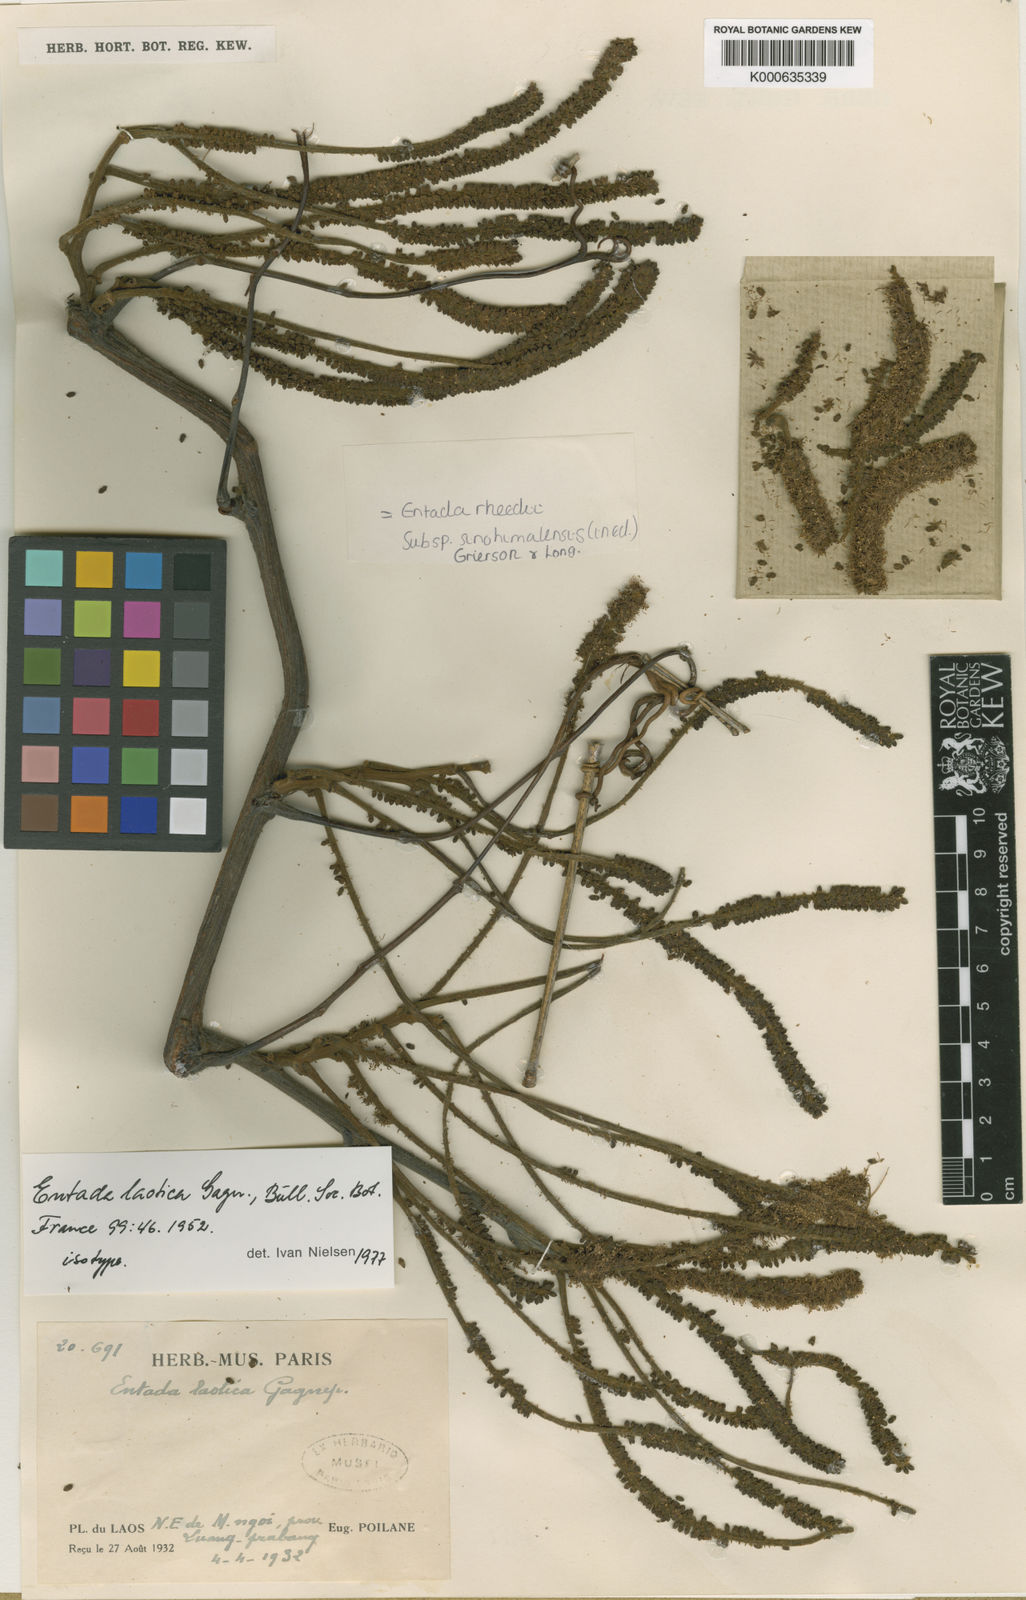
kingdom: Plantae
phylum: Tracheophyta
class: Magnoliopsida
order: Fabales
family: Fabaceae
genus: Entada
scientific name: Entada
